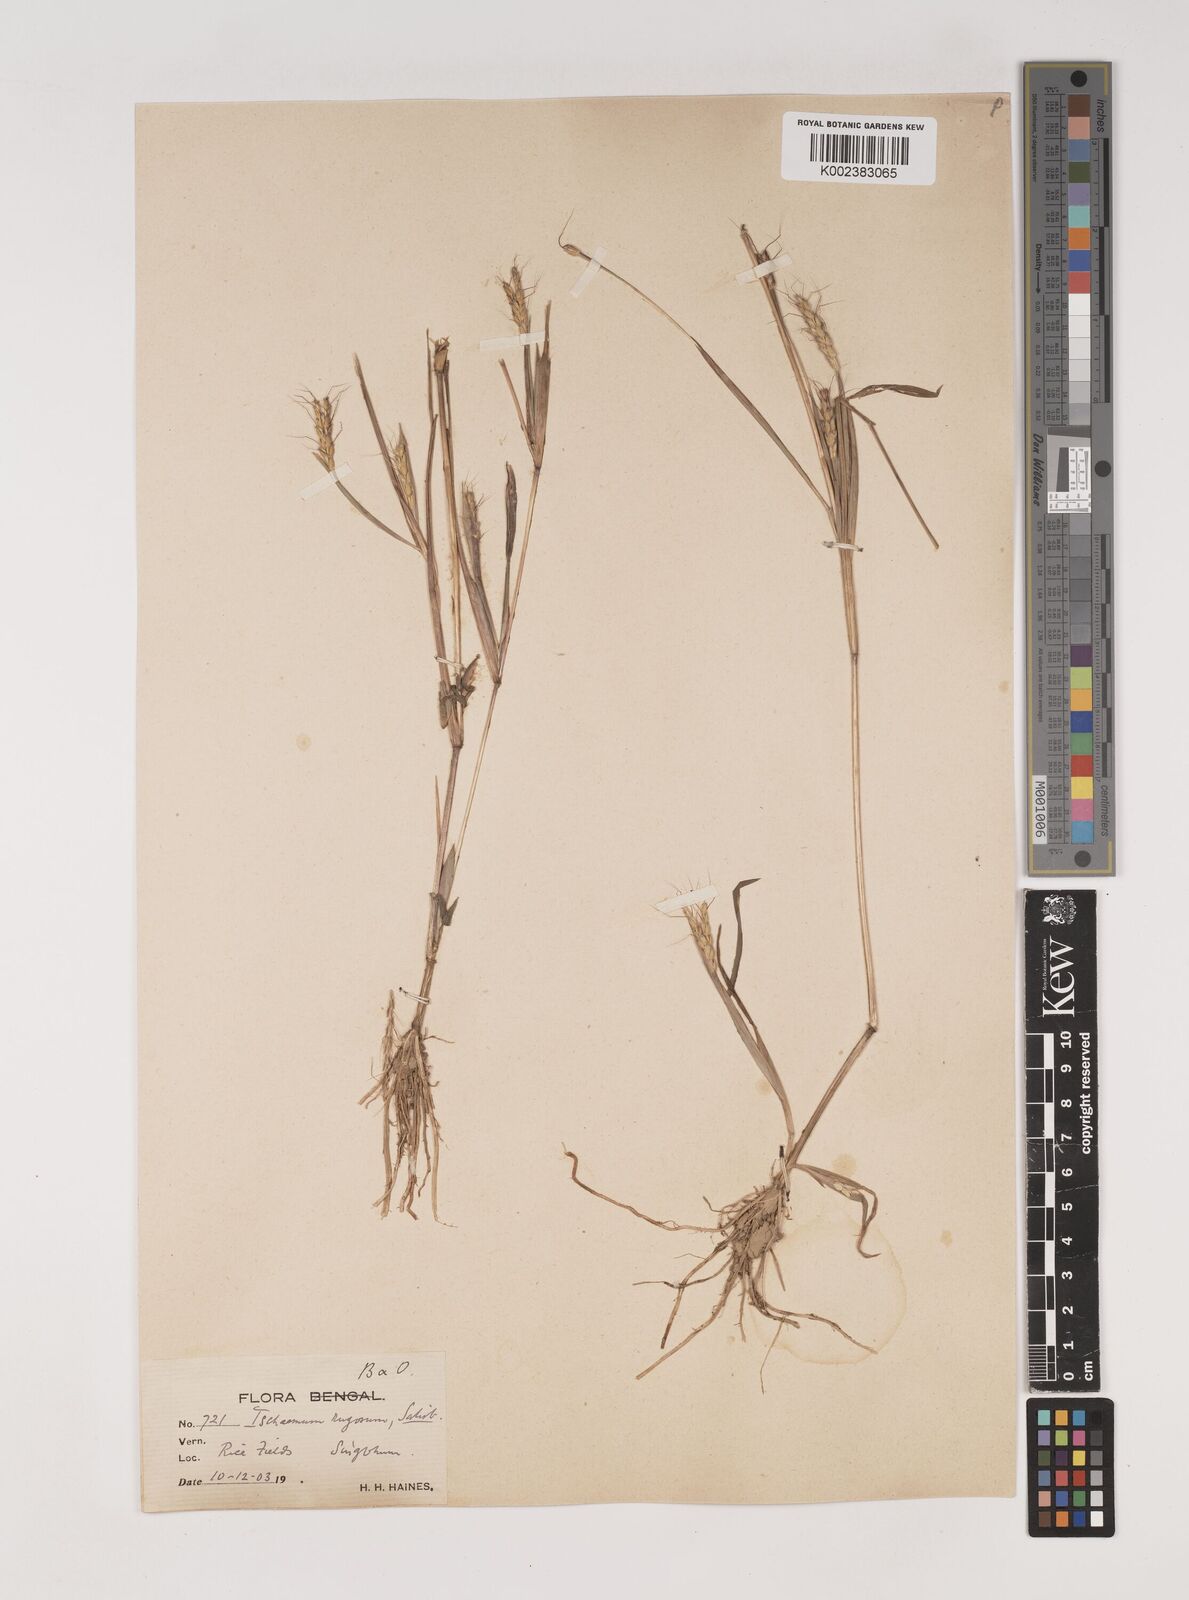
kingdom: Plantae
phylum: Tracheophyta
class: Liliopsida
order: Poales
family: Poaceae
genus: Ischaemum
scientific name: Ischaemum rugosum
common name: Saramatta grass
